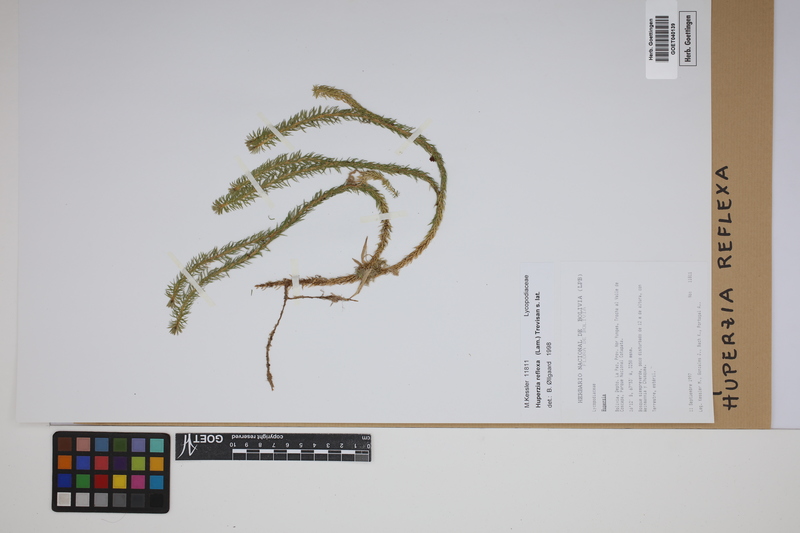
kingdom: Plantae
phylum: Tracheophyta
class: Lycopodiopsida
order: Lycopodiales
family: Lycopodiaceae
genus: Phlegmariurus
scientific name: Phlegmariurus reflexus
